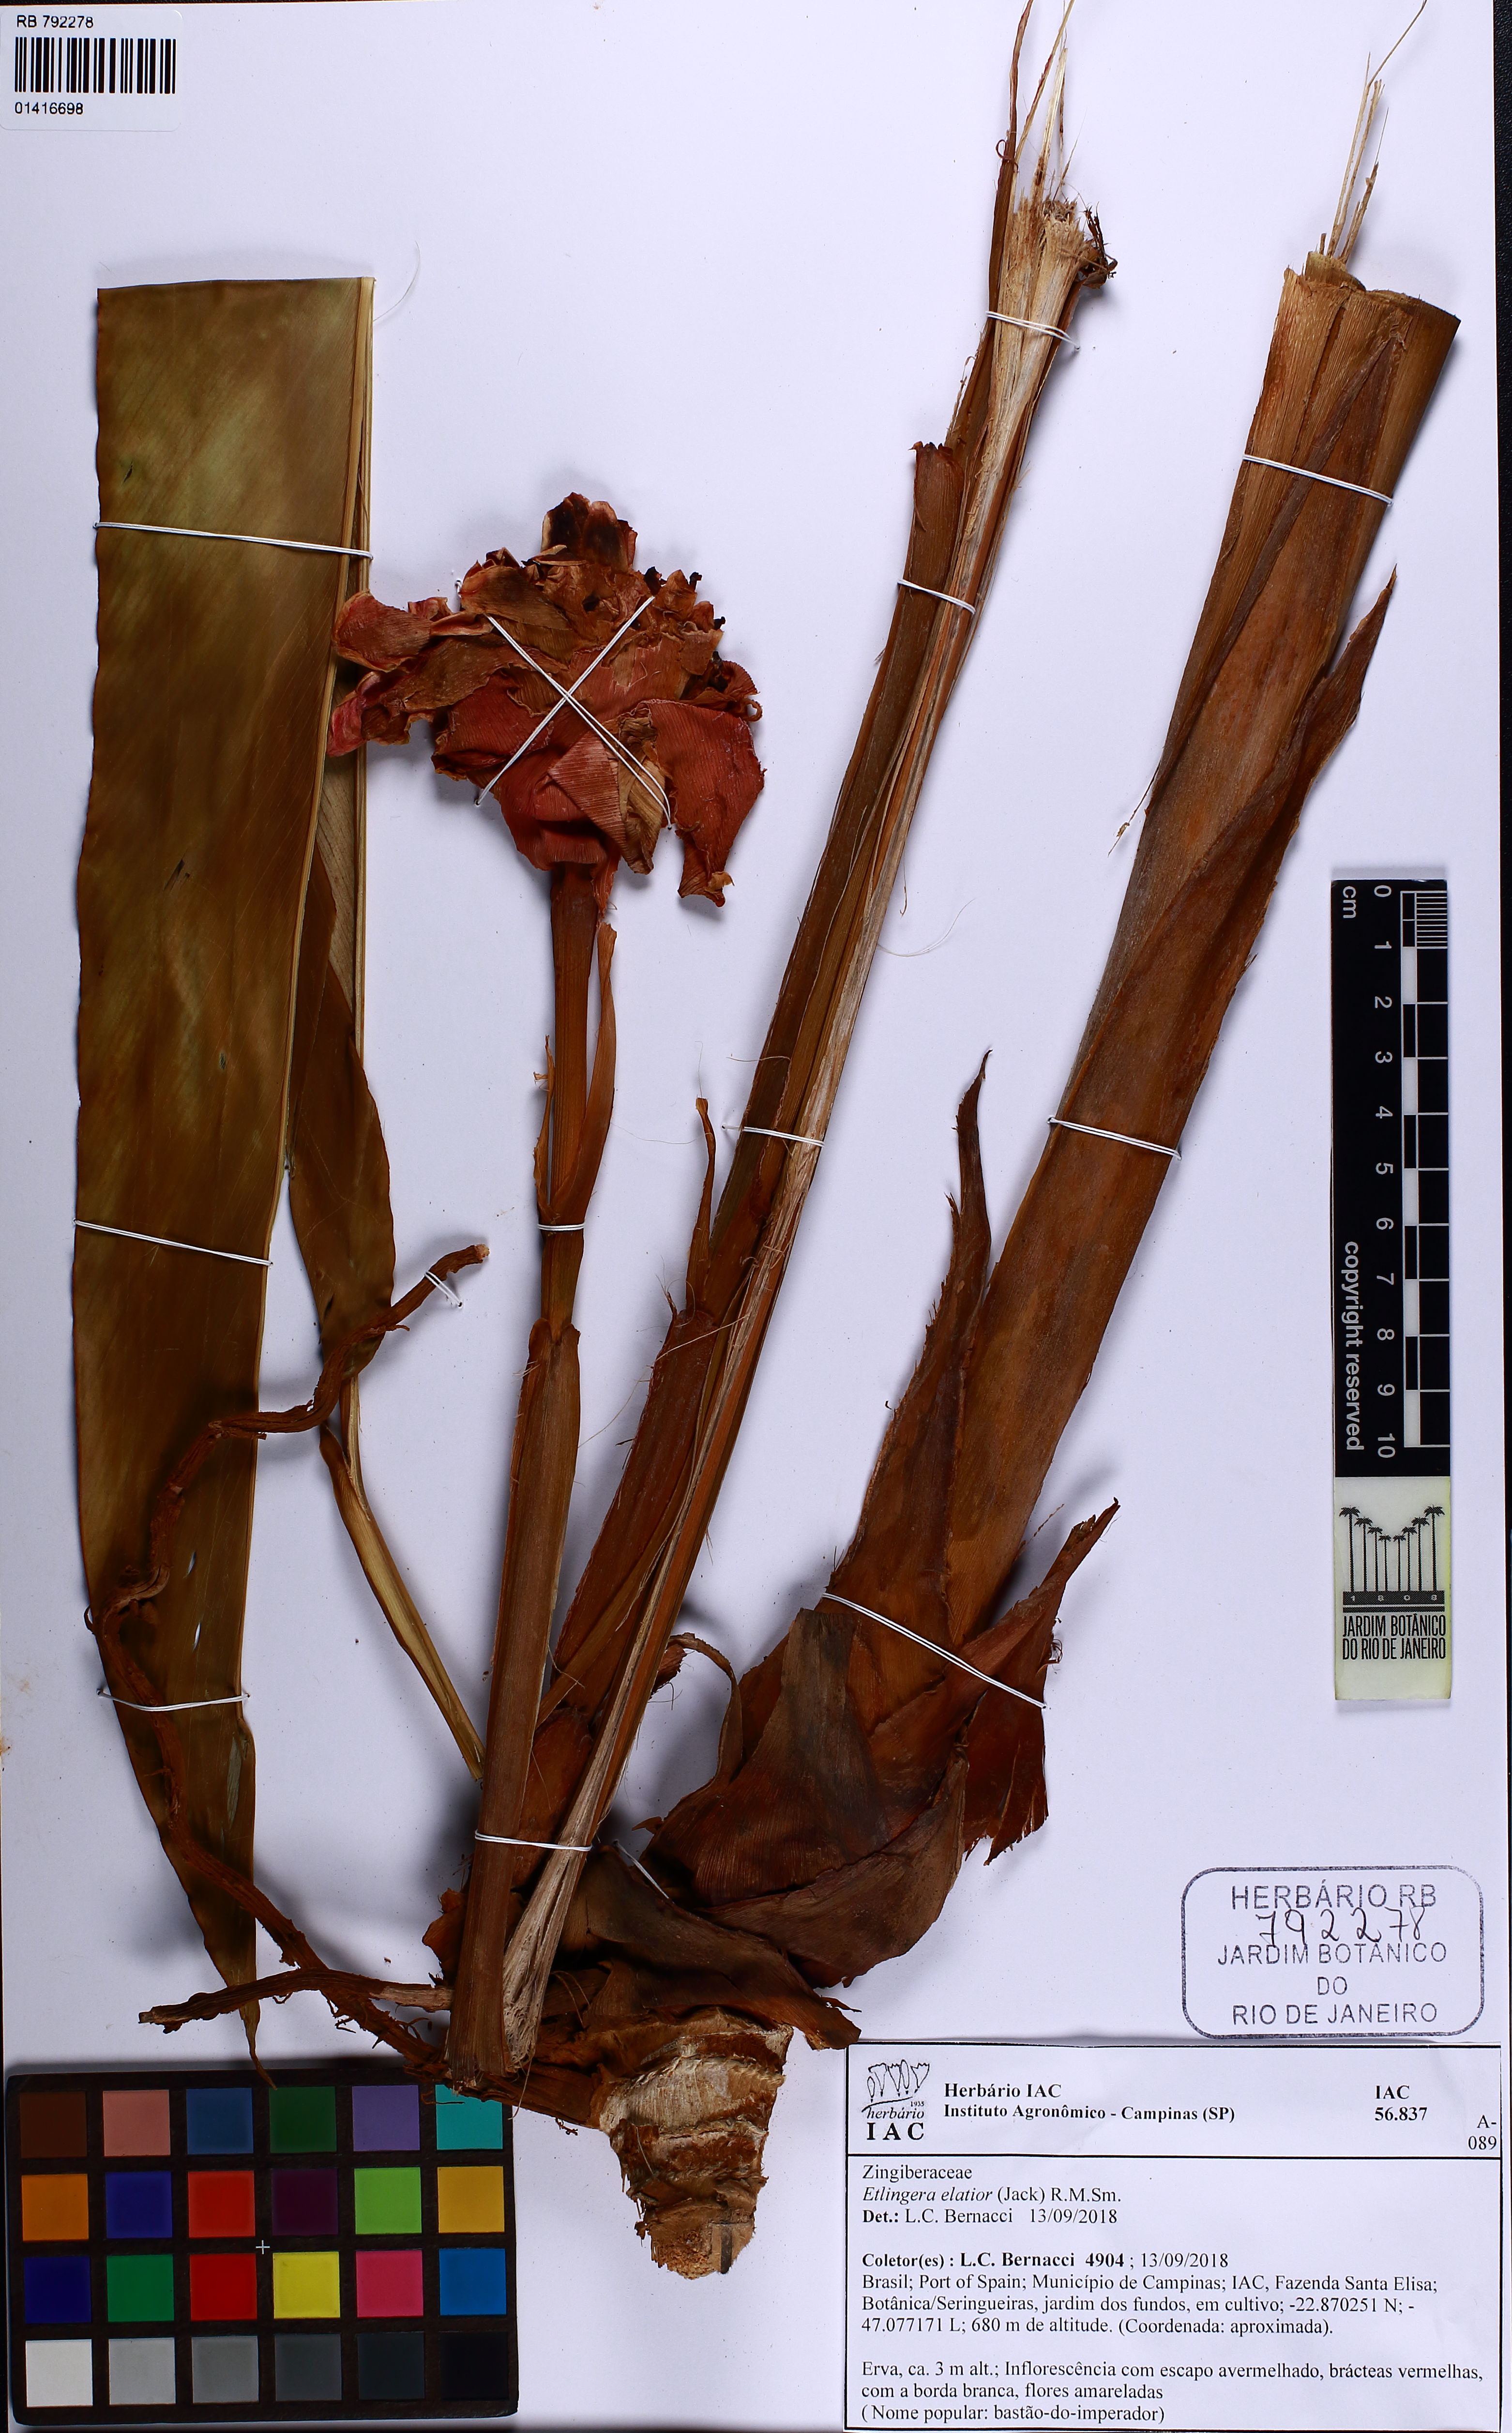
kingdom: Plantae
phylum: Tracheophyta
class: Liliopsida
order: Zingiberales
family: Zingiberaceae
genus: Etlingera
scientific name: Etlingera elatior
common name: Philippine waxflower
